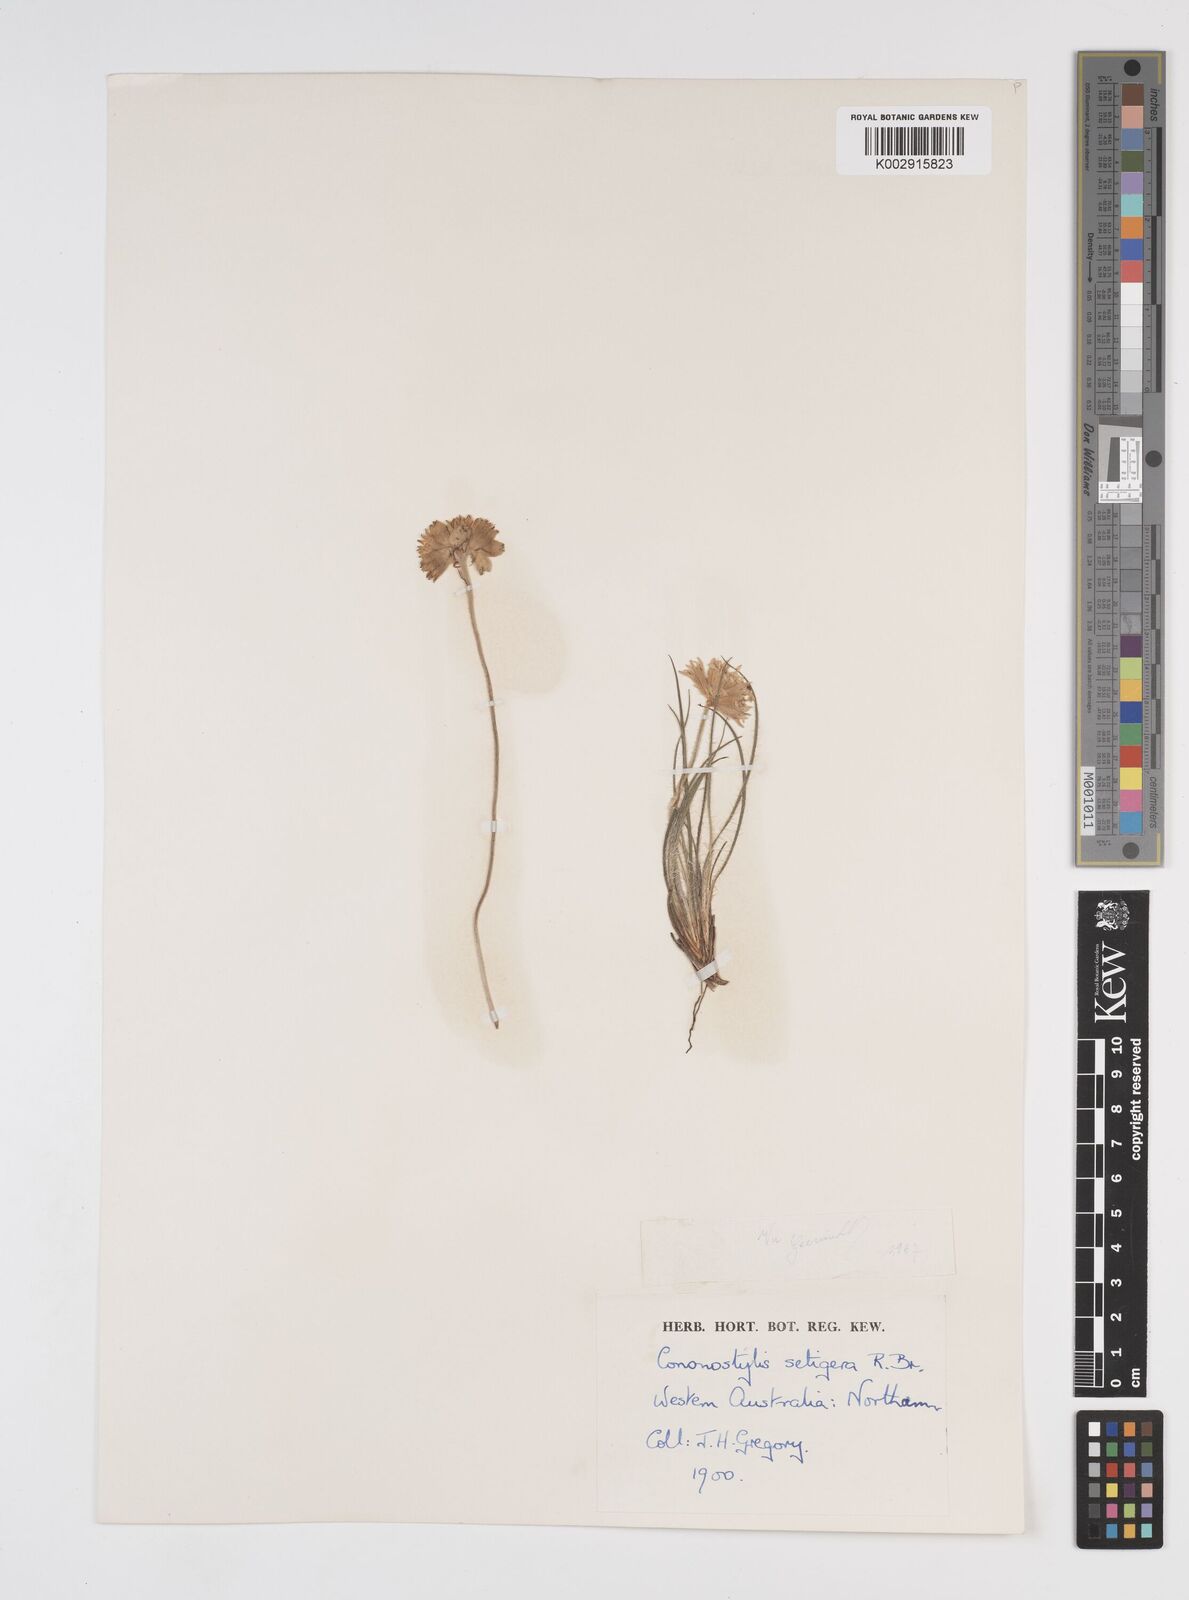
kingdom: Plantae
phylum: Tracheophyta
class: Liliopsida
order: Commelinales
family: Haemodoraceae
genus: Conostylis
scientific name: Conostylis setigera
